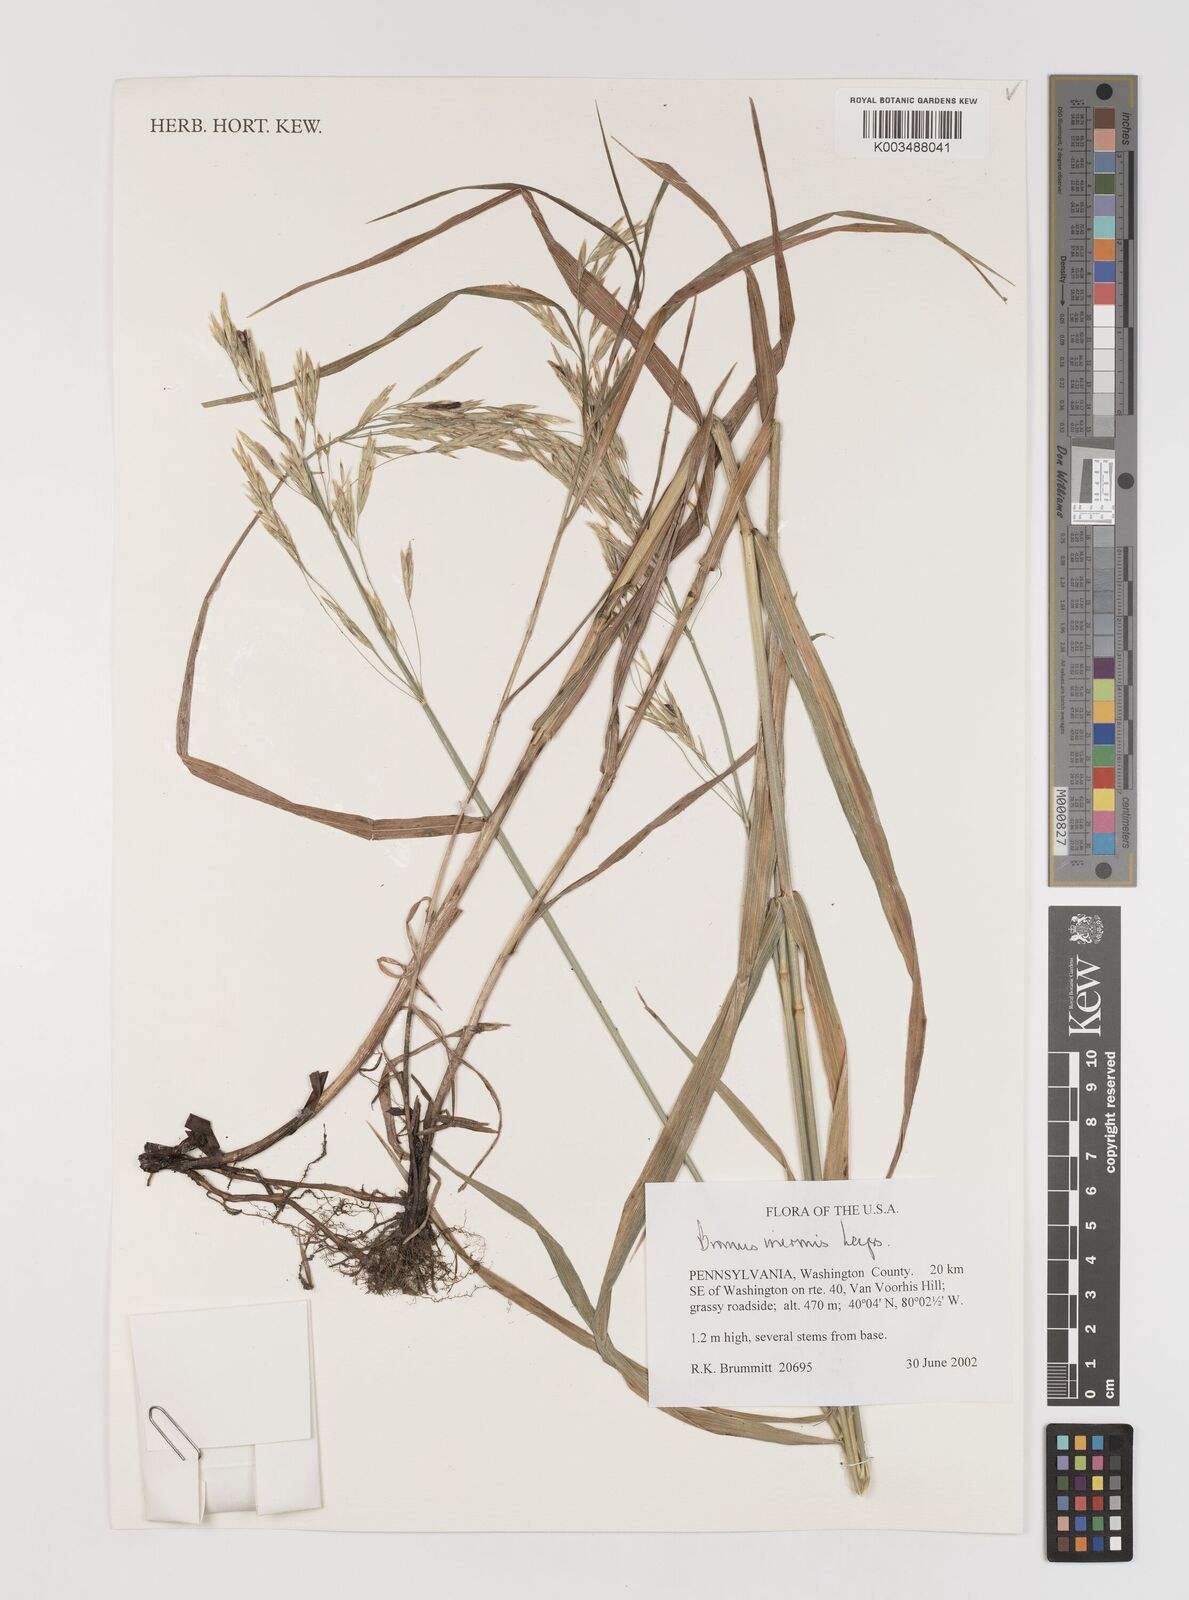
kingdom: Plantae
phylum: Tracheophyta
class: Liliopsida
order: Poales
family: Poaceae
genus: Bromus
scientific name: Bromus inermis
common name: Smooth brome
